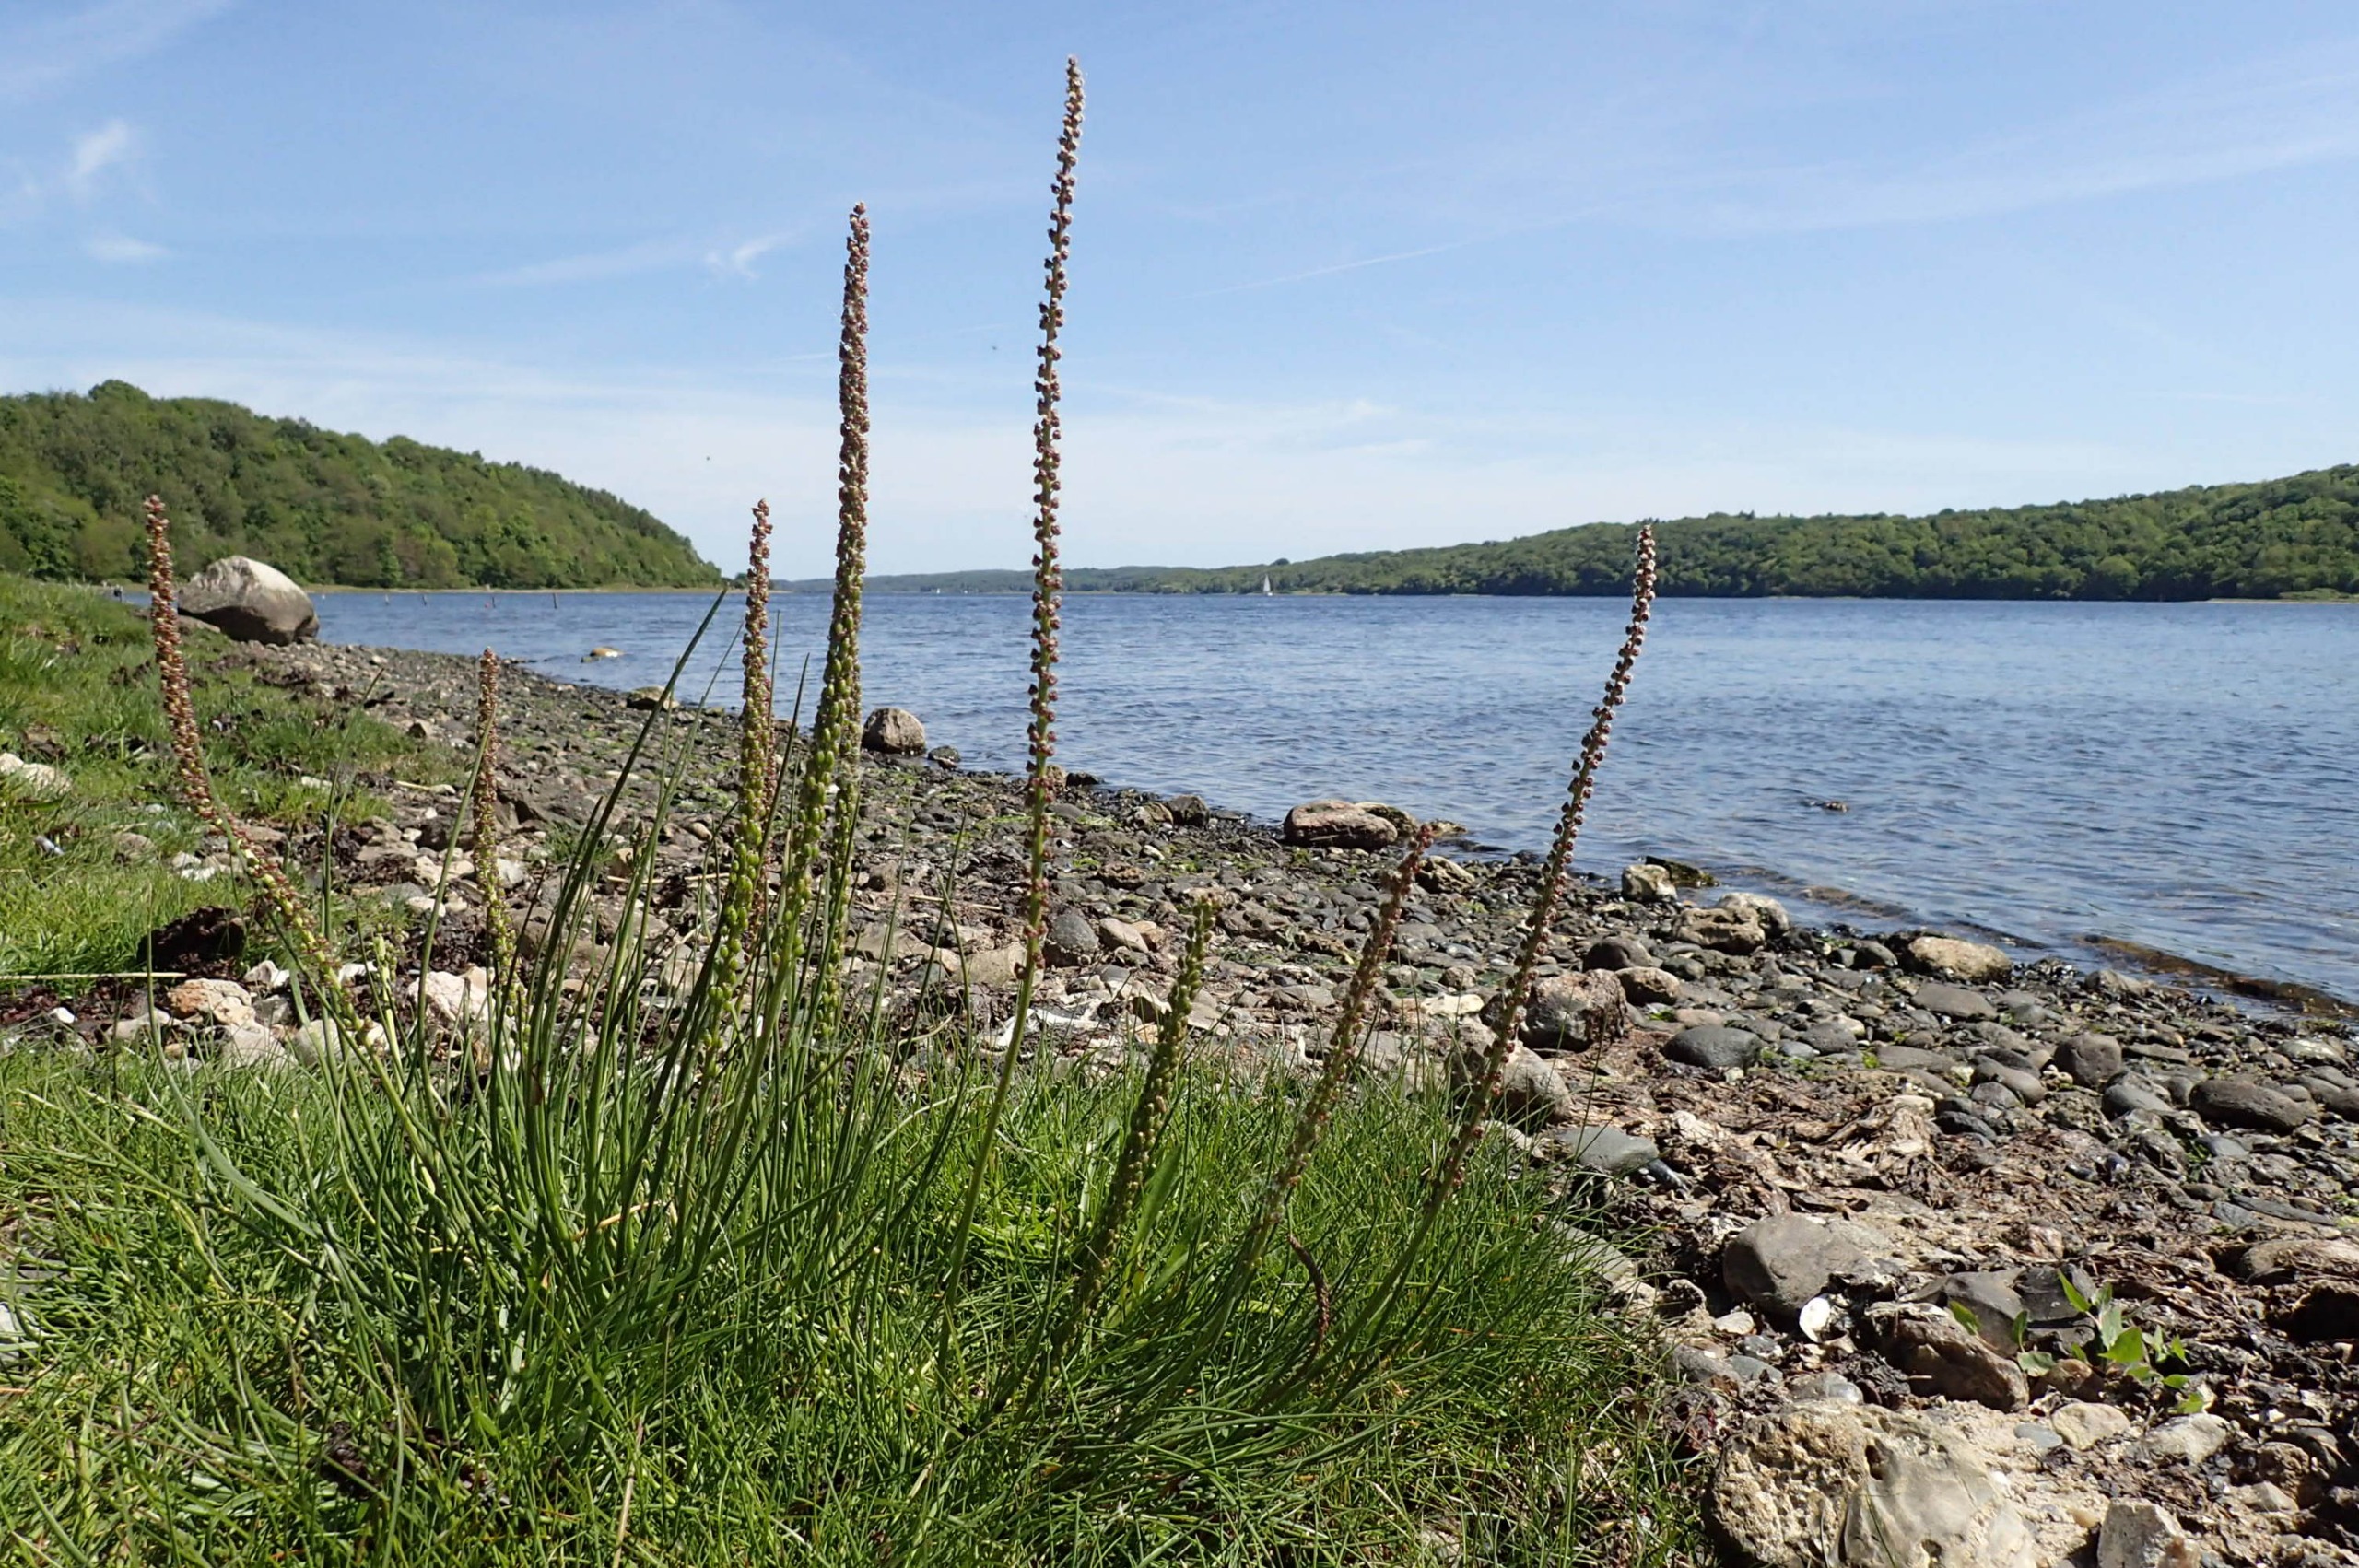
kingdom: Plantae
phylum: Tracheophyta
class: Liliopsida
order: Alismatales
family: Juncaginaceae
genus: Triglochin
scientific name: Triglochin maritima
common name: Strand-trehage
